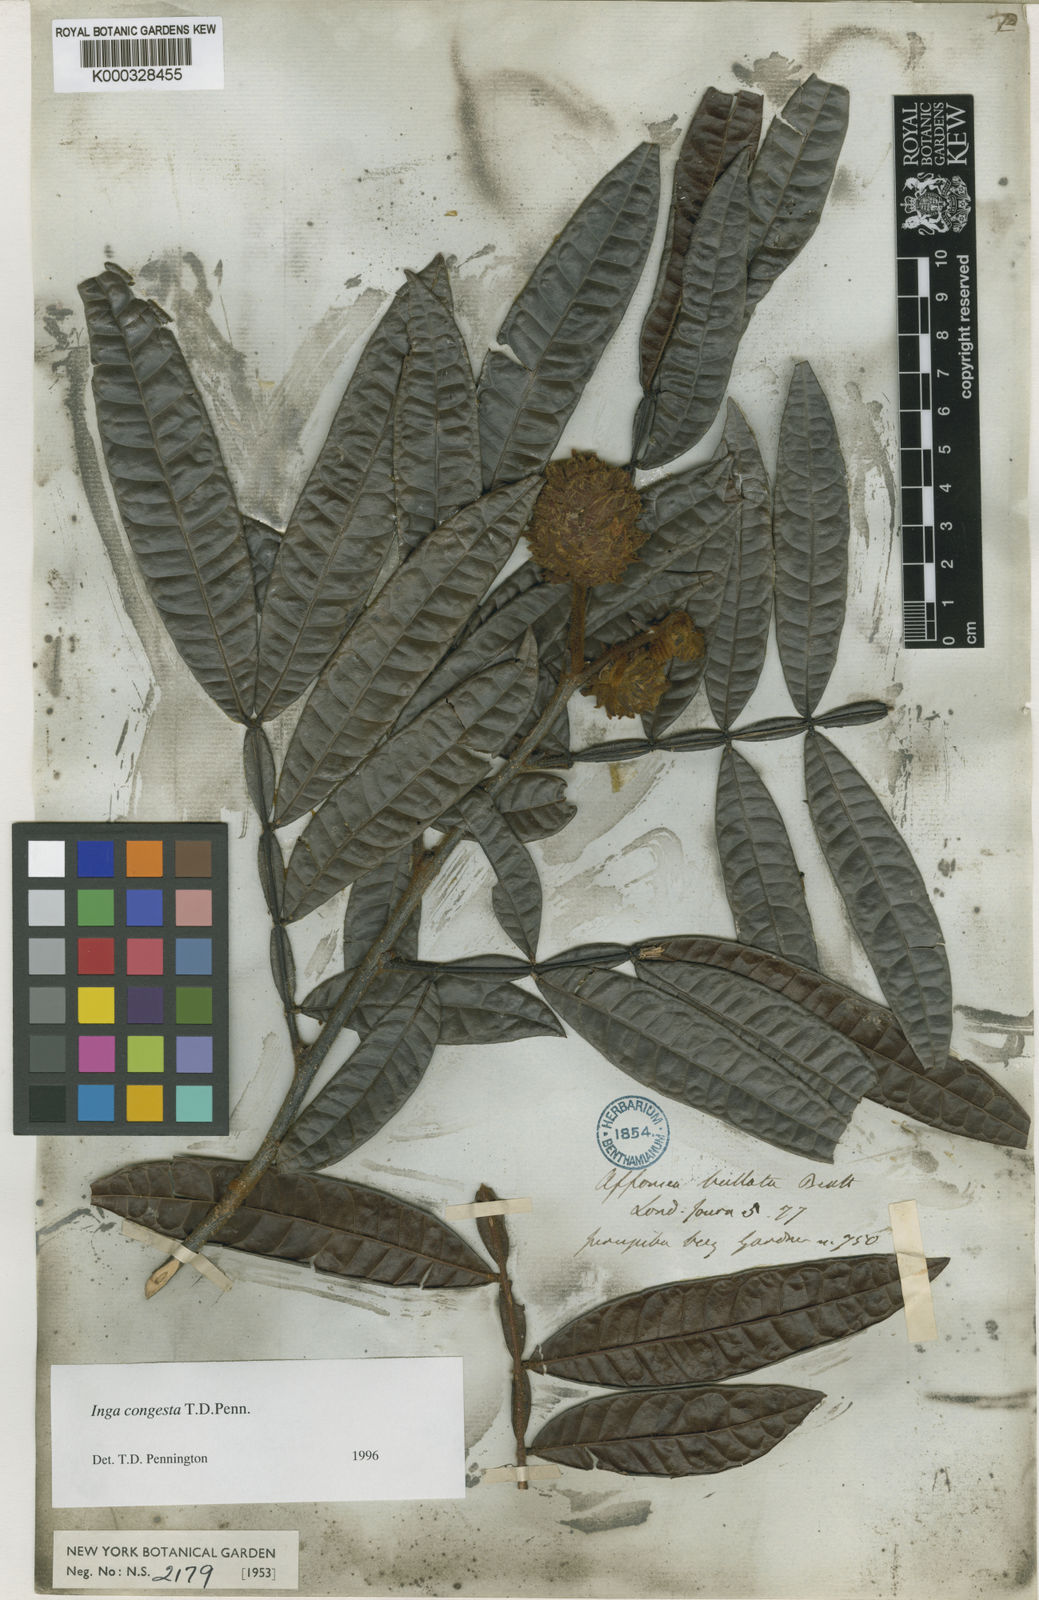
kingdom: Plantae
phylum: Tracheophyta
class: Magnoliopsida
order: Fabales
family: Fabaceae
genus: Inga
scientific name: Inga congesta
